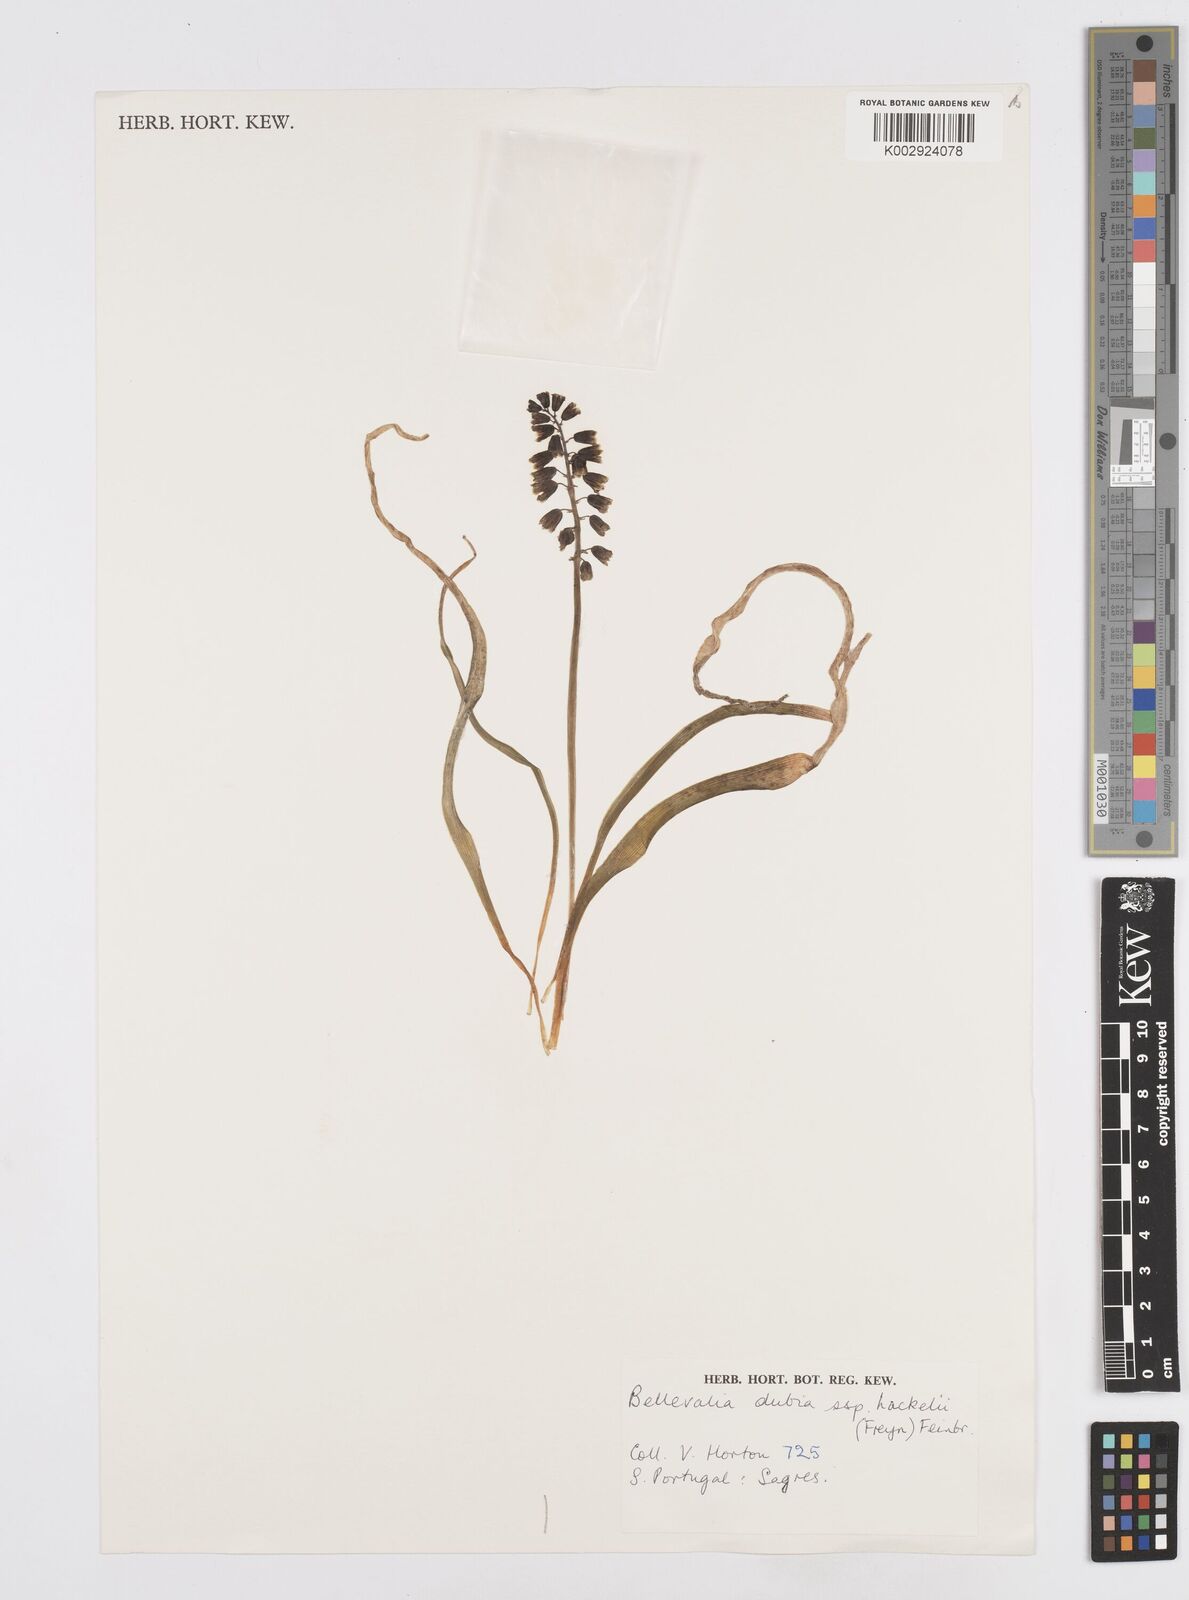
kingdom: Plantae
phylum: Tracheophyta
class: Liliopsida
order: Asparagales
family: Asparagaceae
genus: Bellevalia
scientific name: Bellevalia dubia
